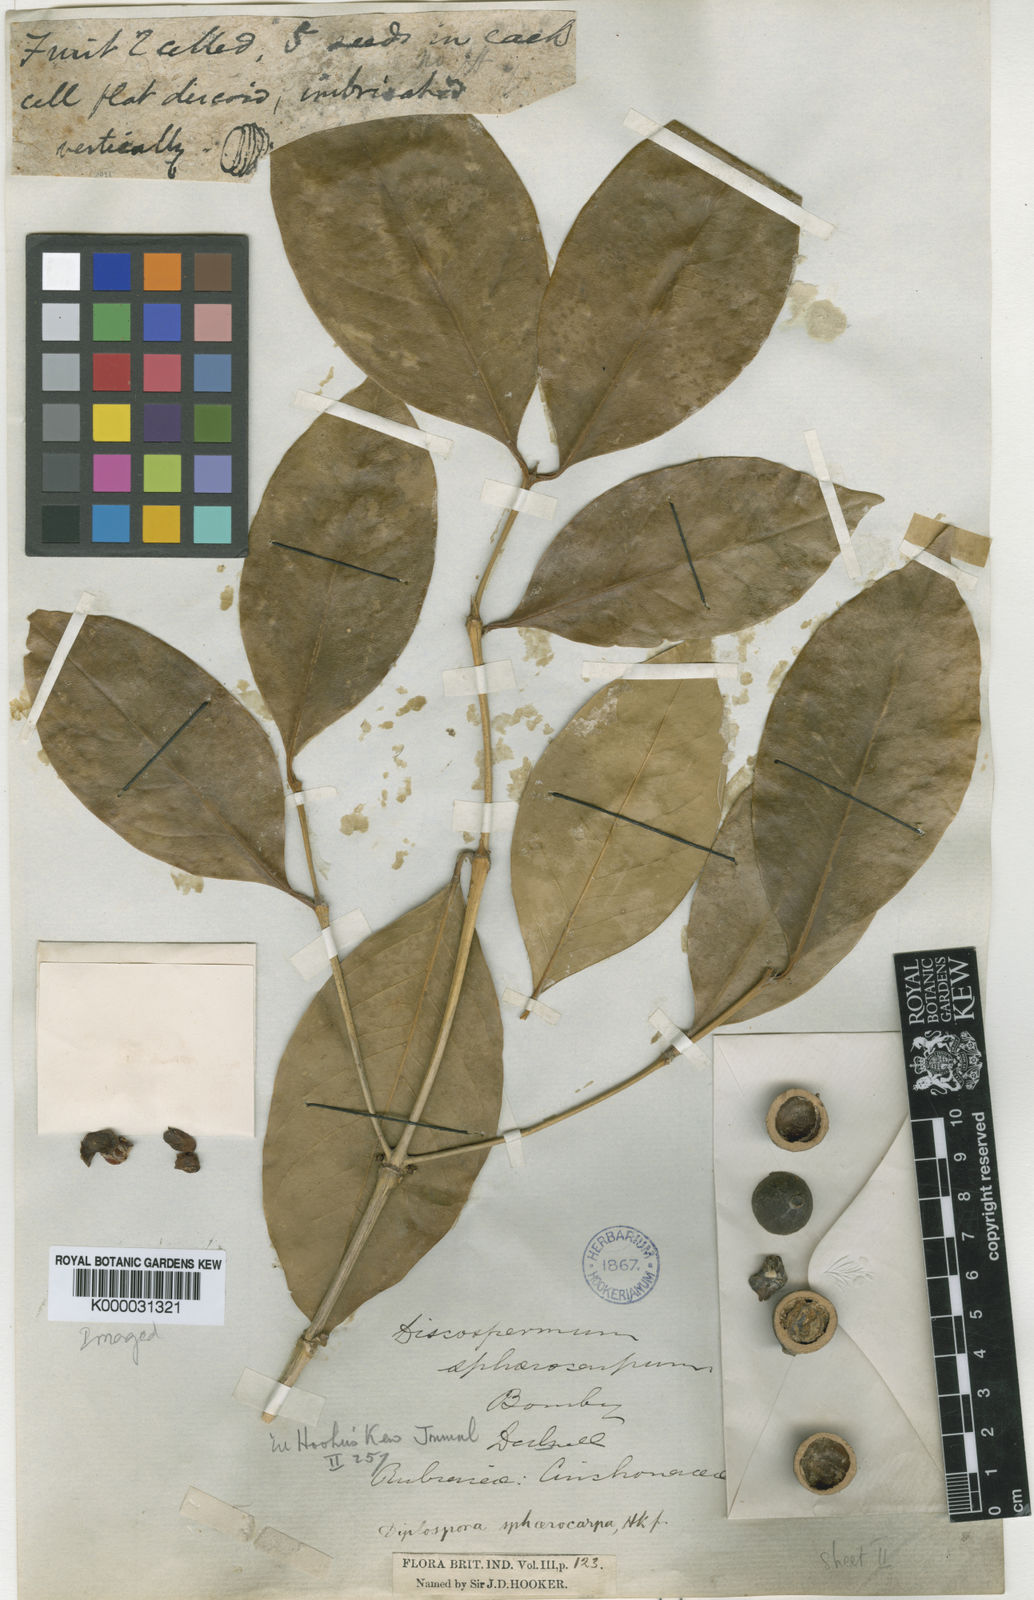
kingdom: Plantae
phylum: Tracheophyta
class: Magnoliopsida
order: Gentianales
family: Rubiaceae
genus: Discospermum
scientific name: Discospermum
